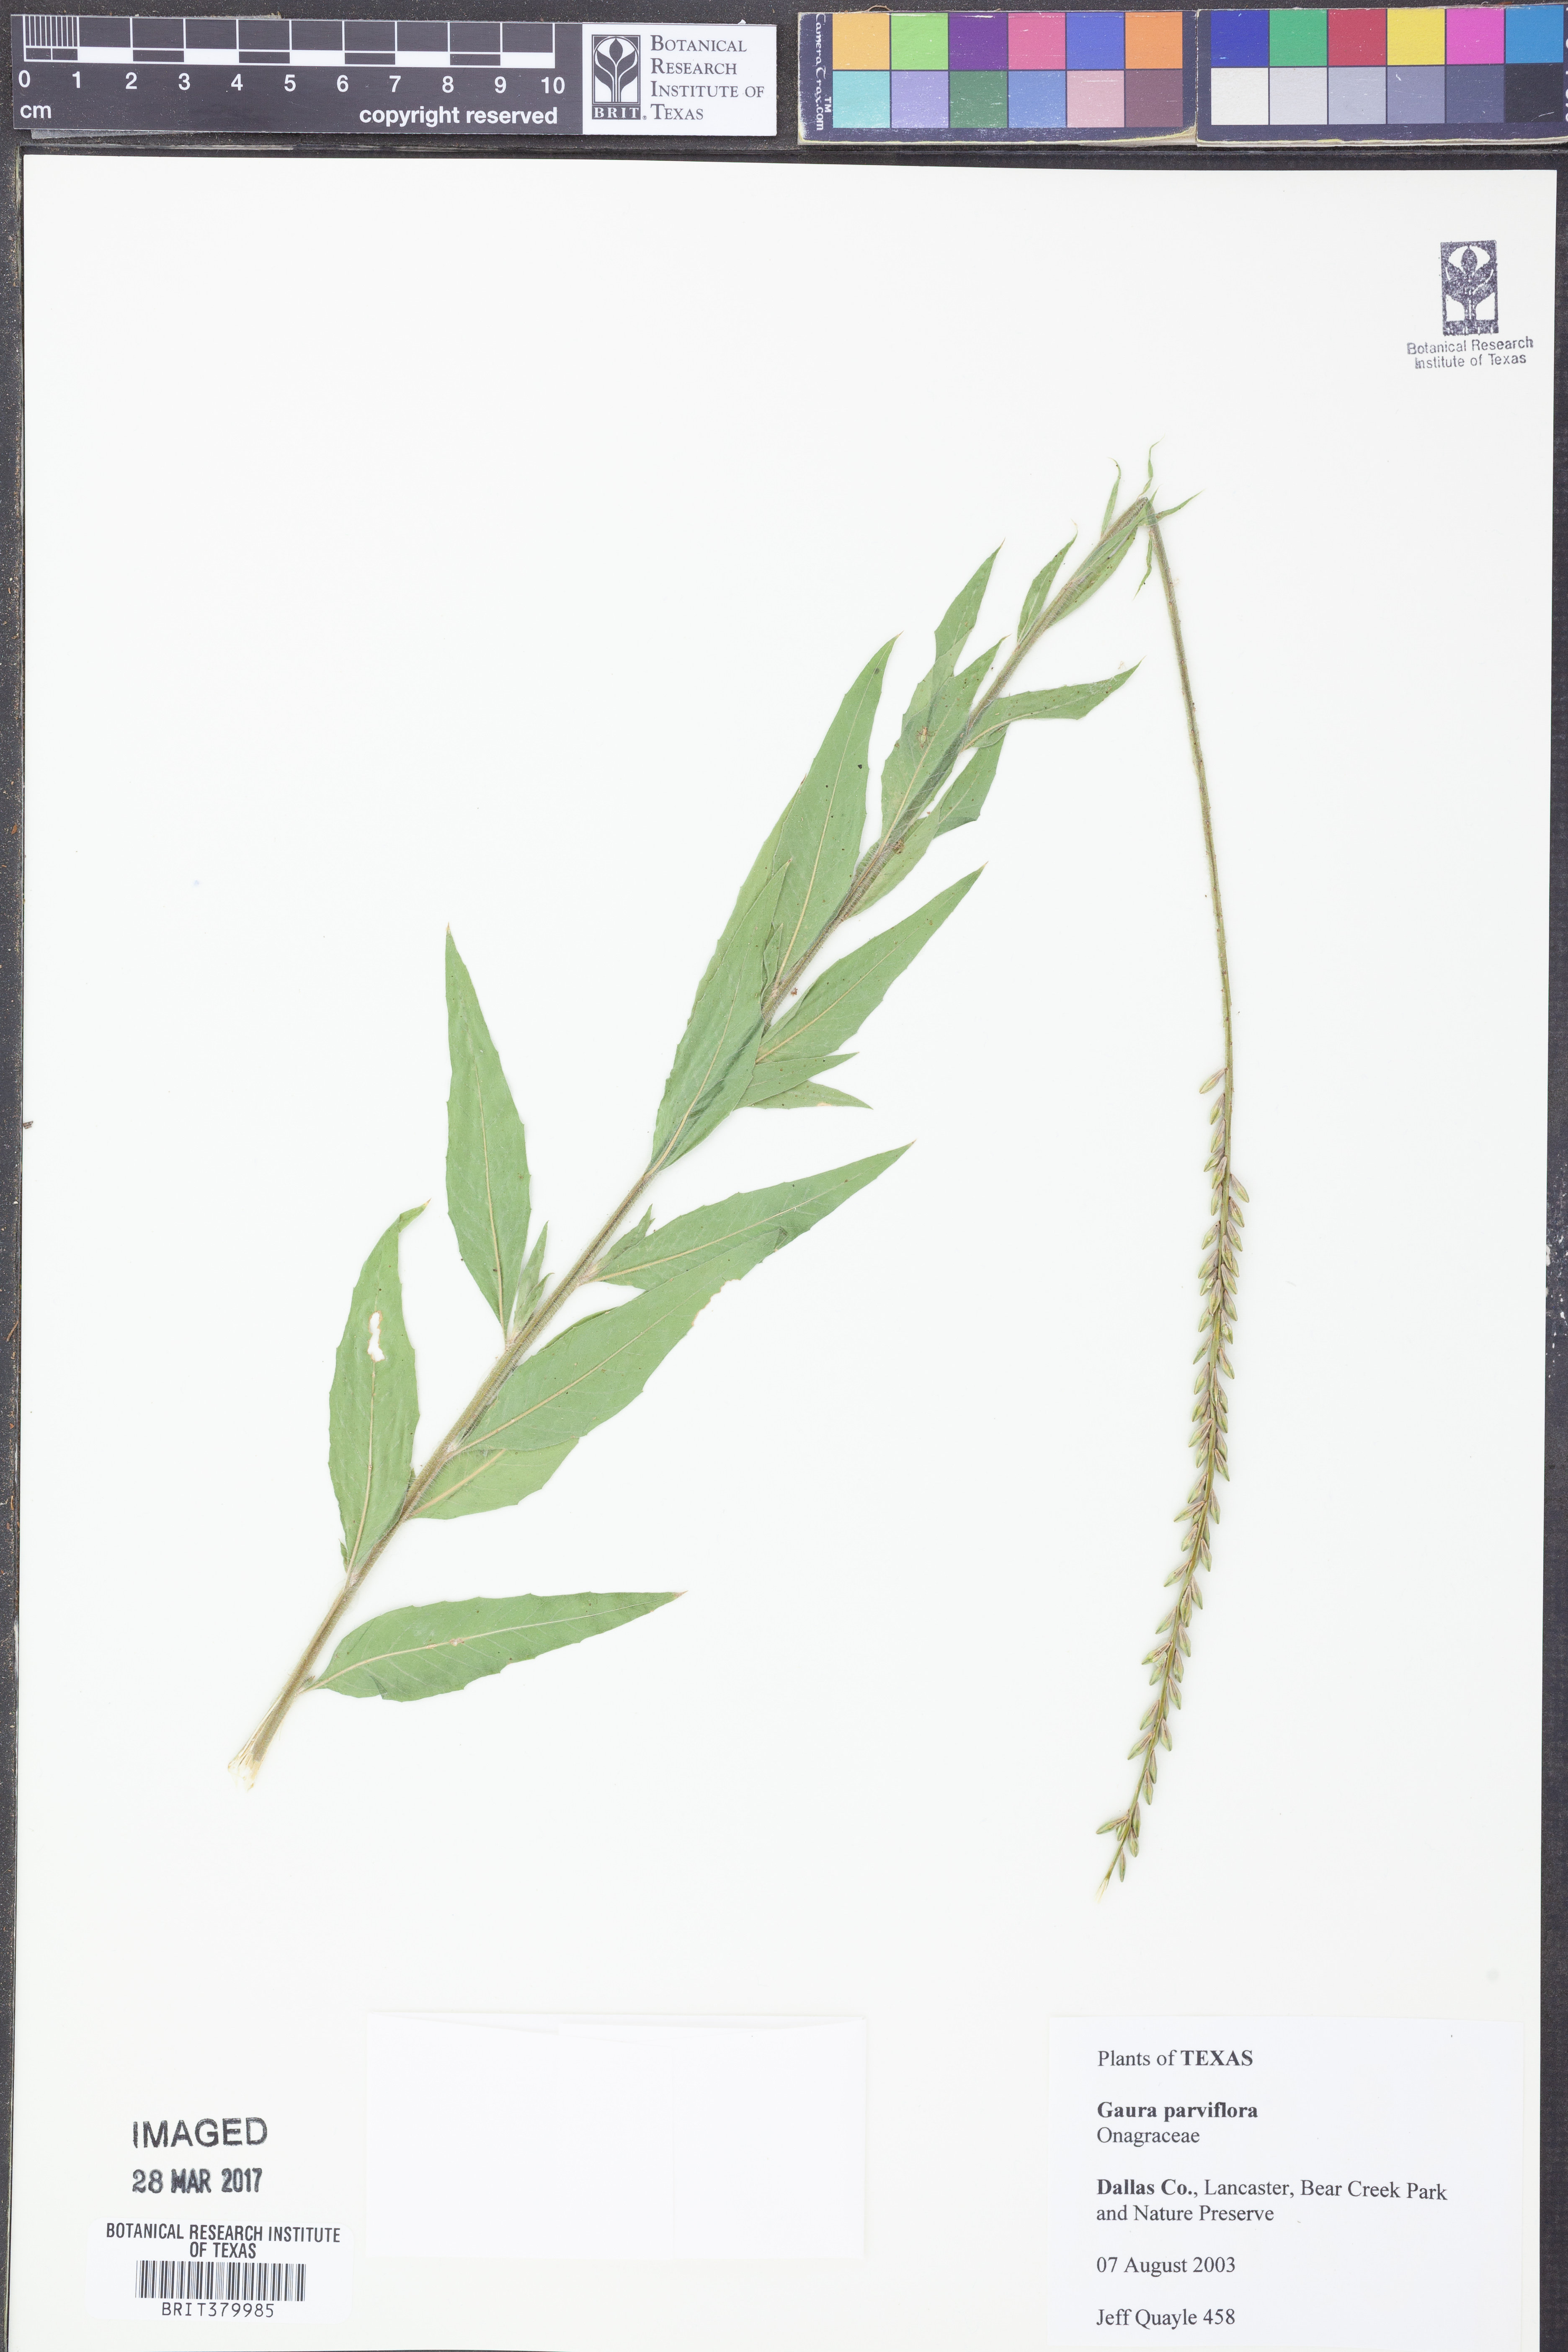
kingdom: Plantae
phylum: Tracheophyta
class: Magnoliopsida
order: Myrtales
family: Onagraceae
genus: Oenothera
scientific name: Oenothera curtiflora
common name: Velvetweed
